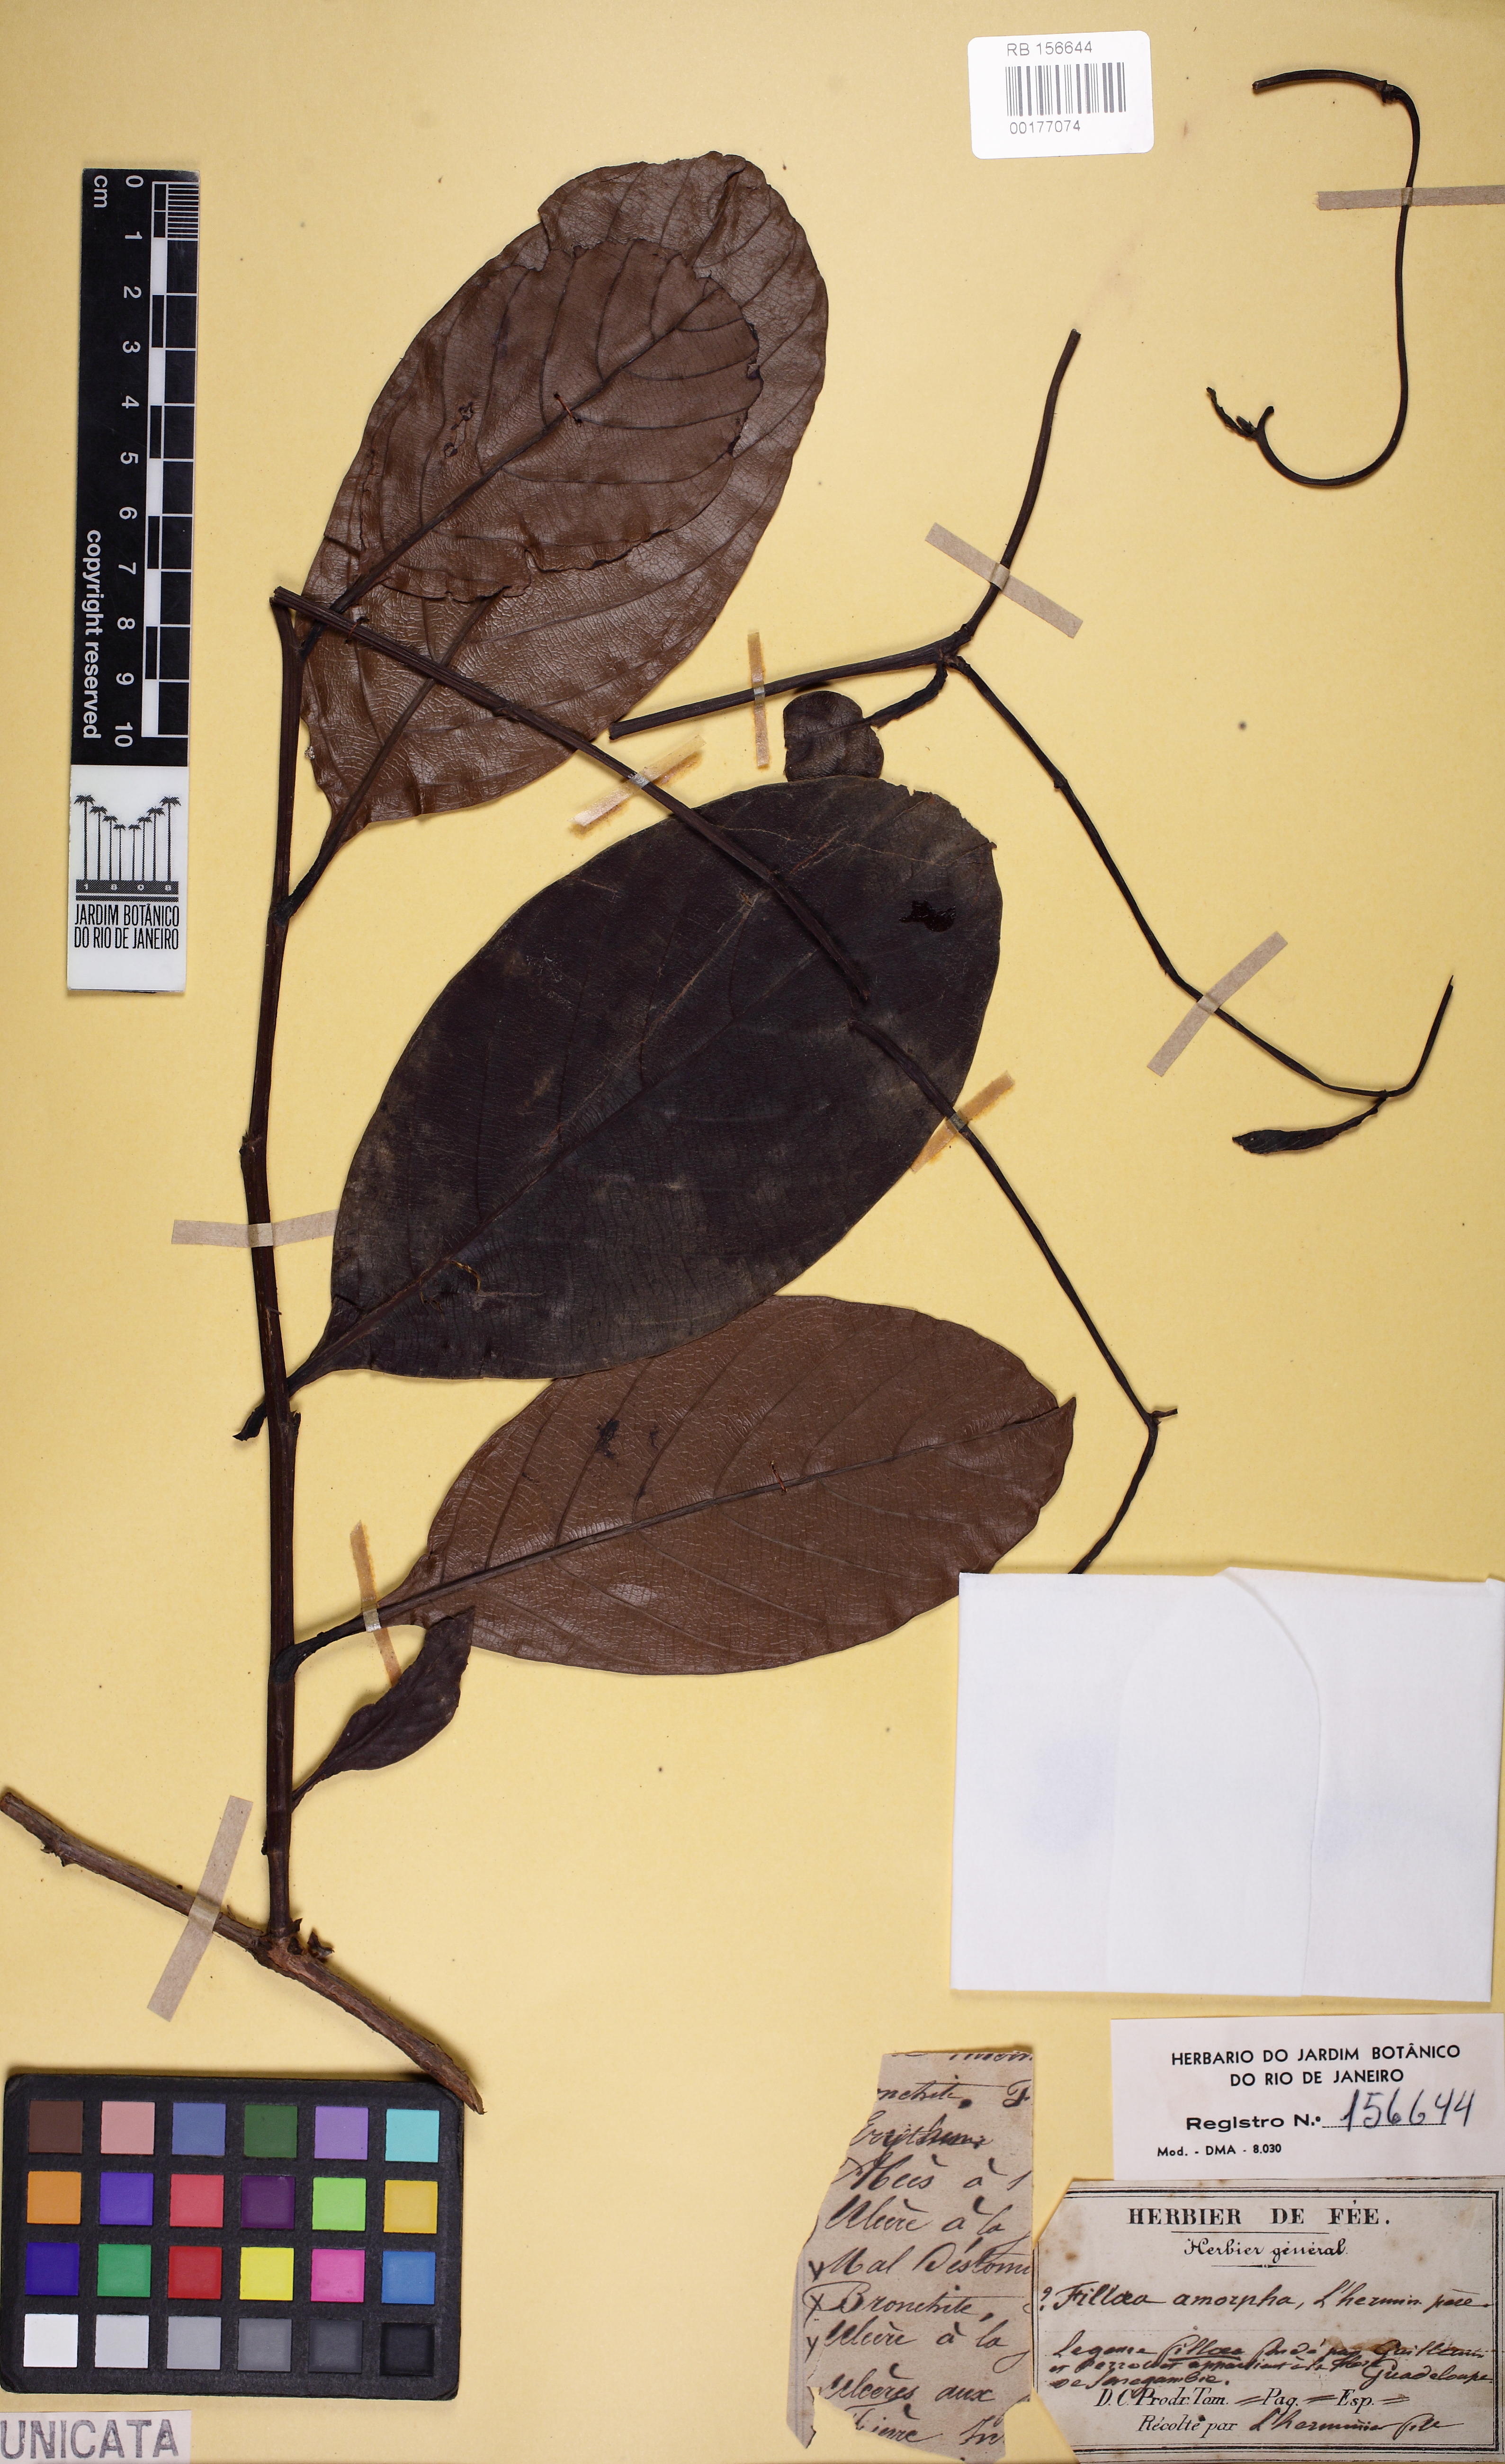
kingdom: Plantae
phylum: Tracheophyta
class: Magnoliopsida
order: Fabales
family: Fabaceae
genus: Erythrophleum
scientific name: Erythrophleum
